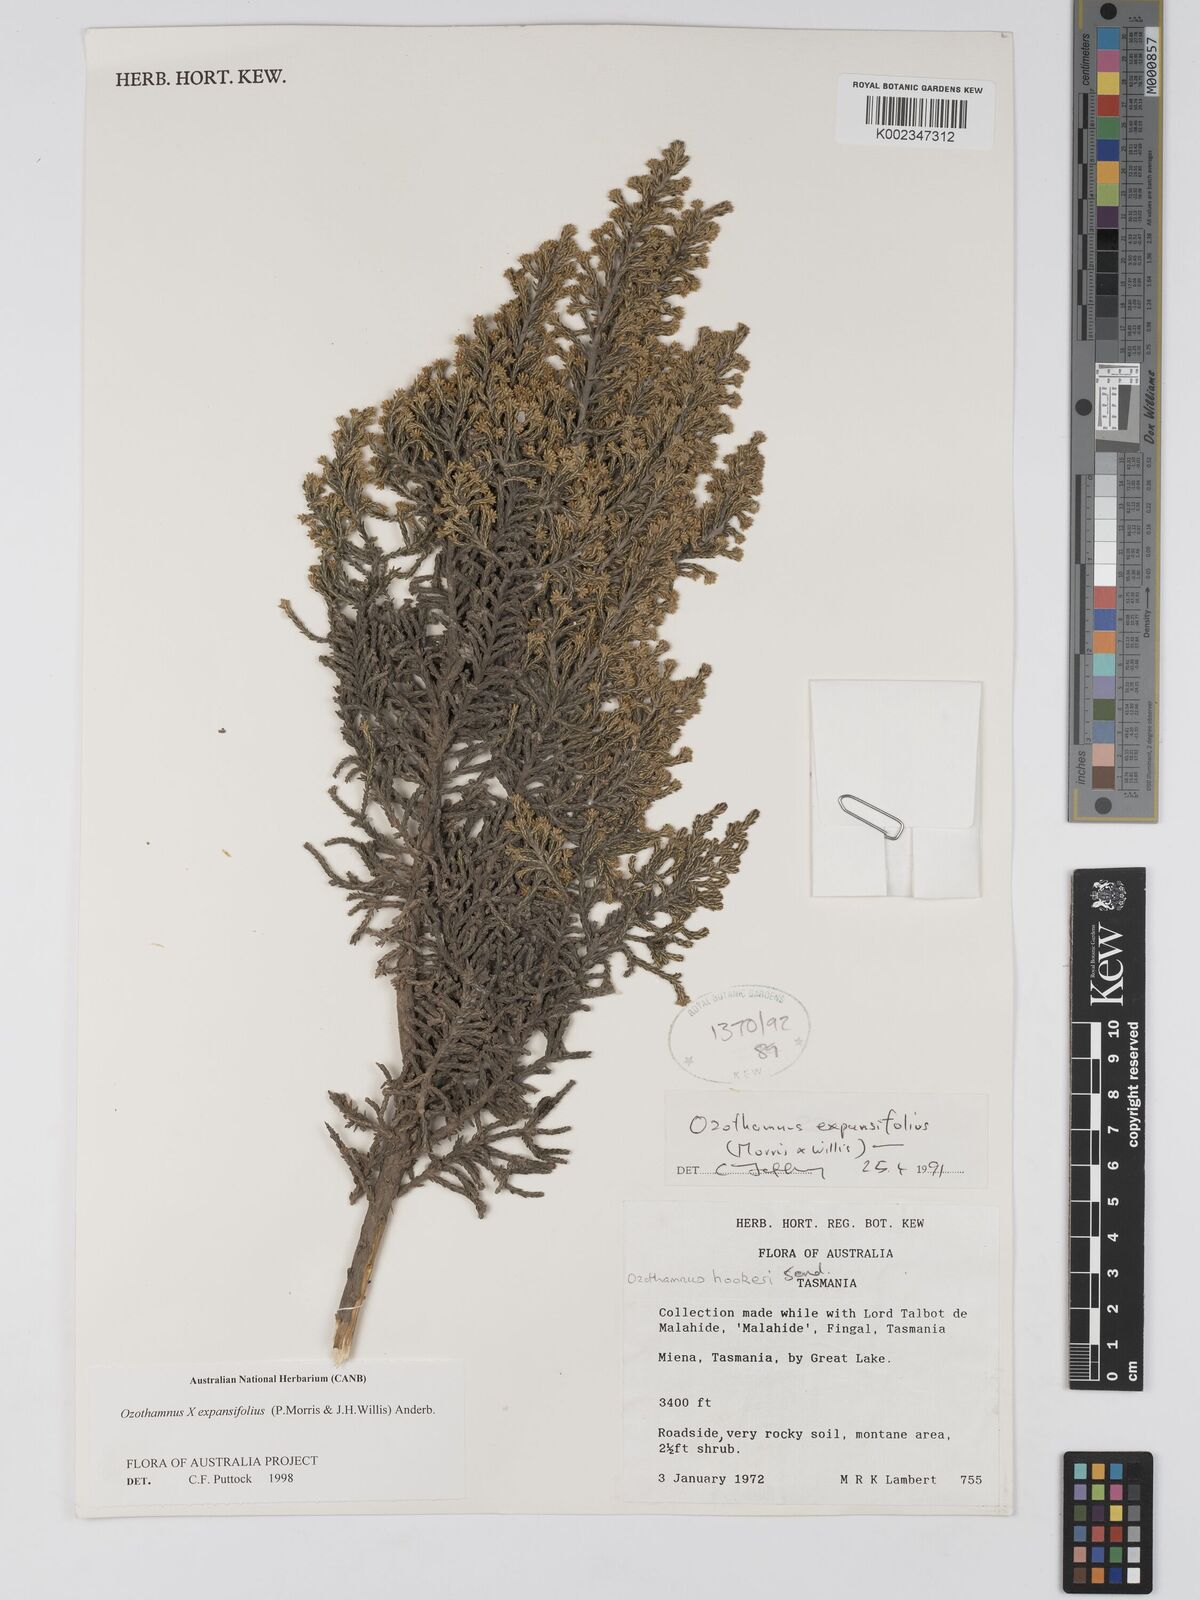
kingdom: Plantae
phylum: Tracheophyta
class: Magnoliopsida
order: Asterales
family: Asteraceae
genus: Ozothamnus
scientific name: Ozothamnus expansifolius
